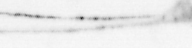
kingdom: Animalia
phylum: Arthropoda
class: Copepoda
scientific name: Copepoda
